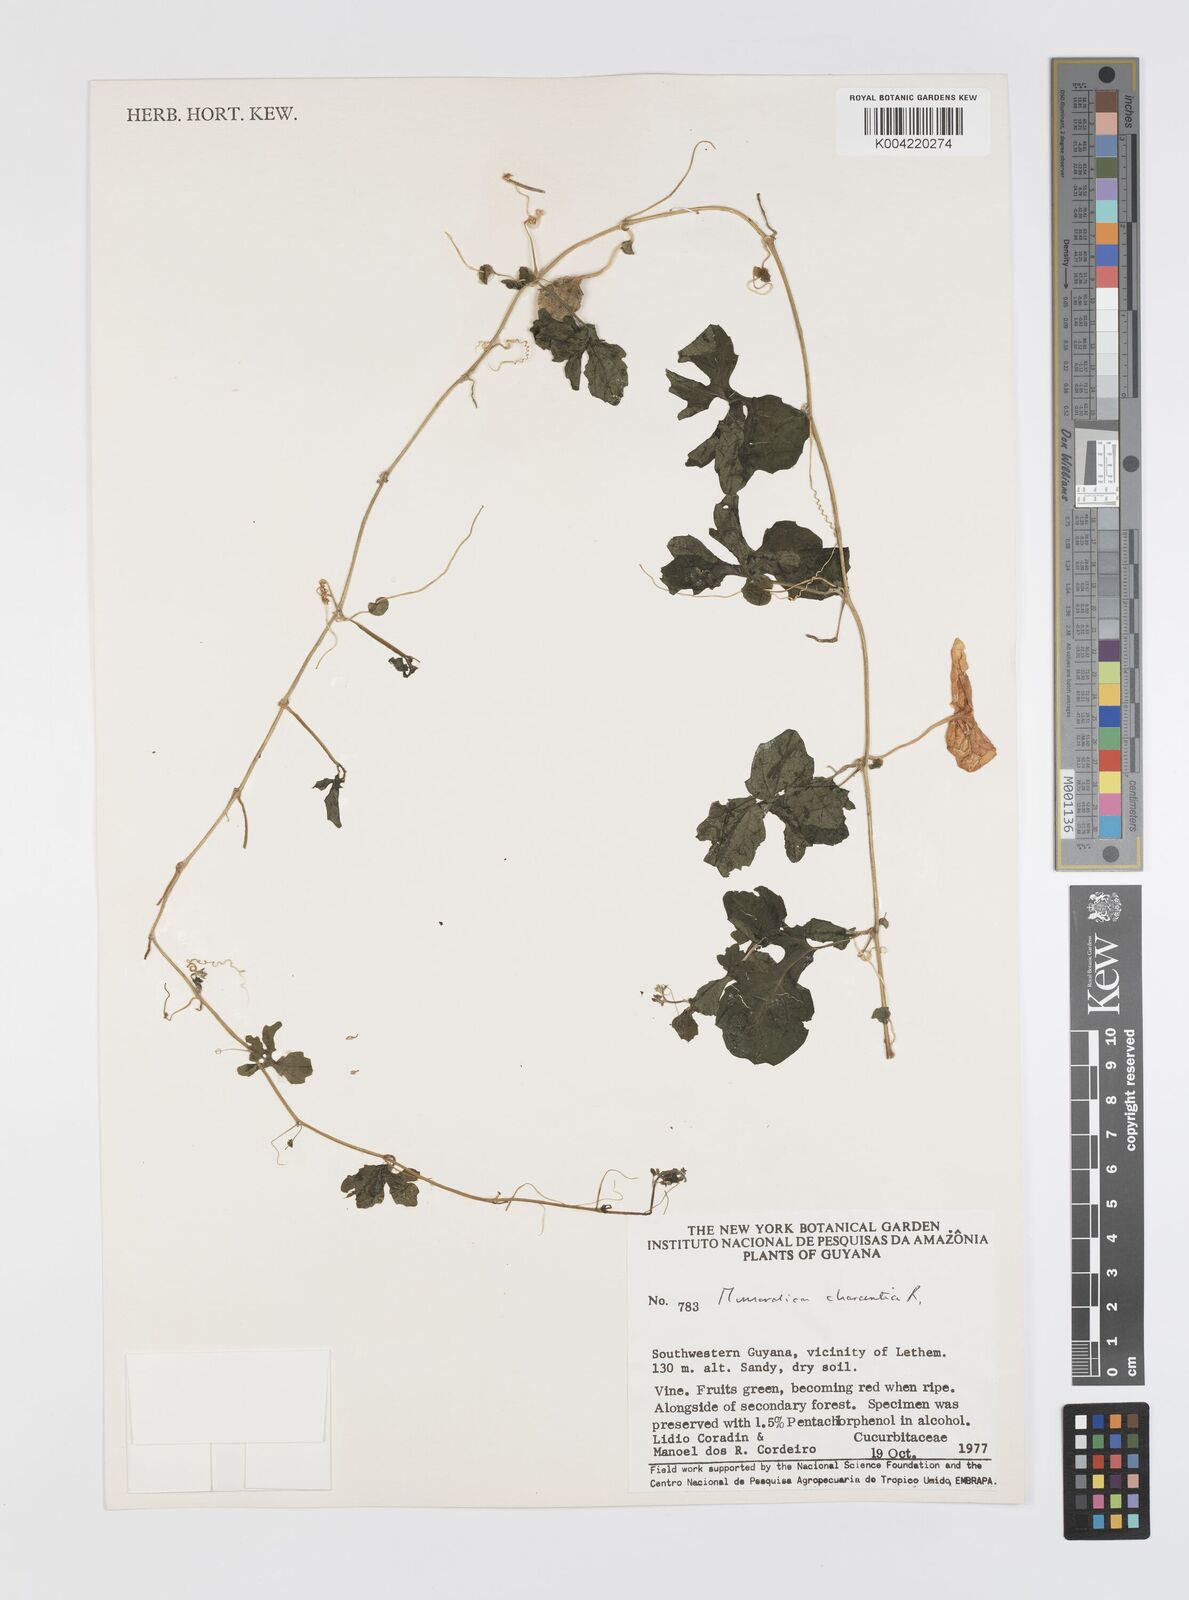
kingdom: Plantae
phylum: Tracheophyta
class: Magnoliopsida
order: Cucurbitales
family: Cucurbitaceae
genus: Momordica
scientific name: Momordica charantia
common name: Balsampear
